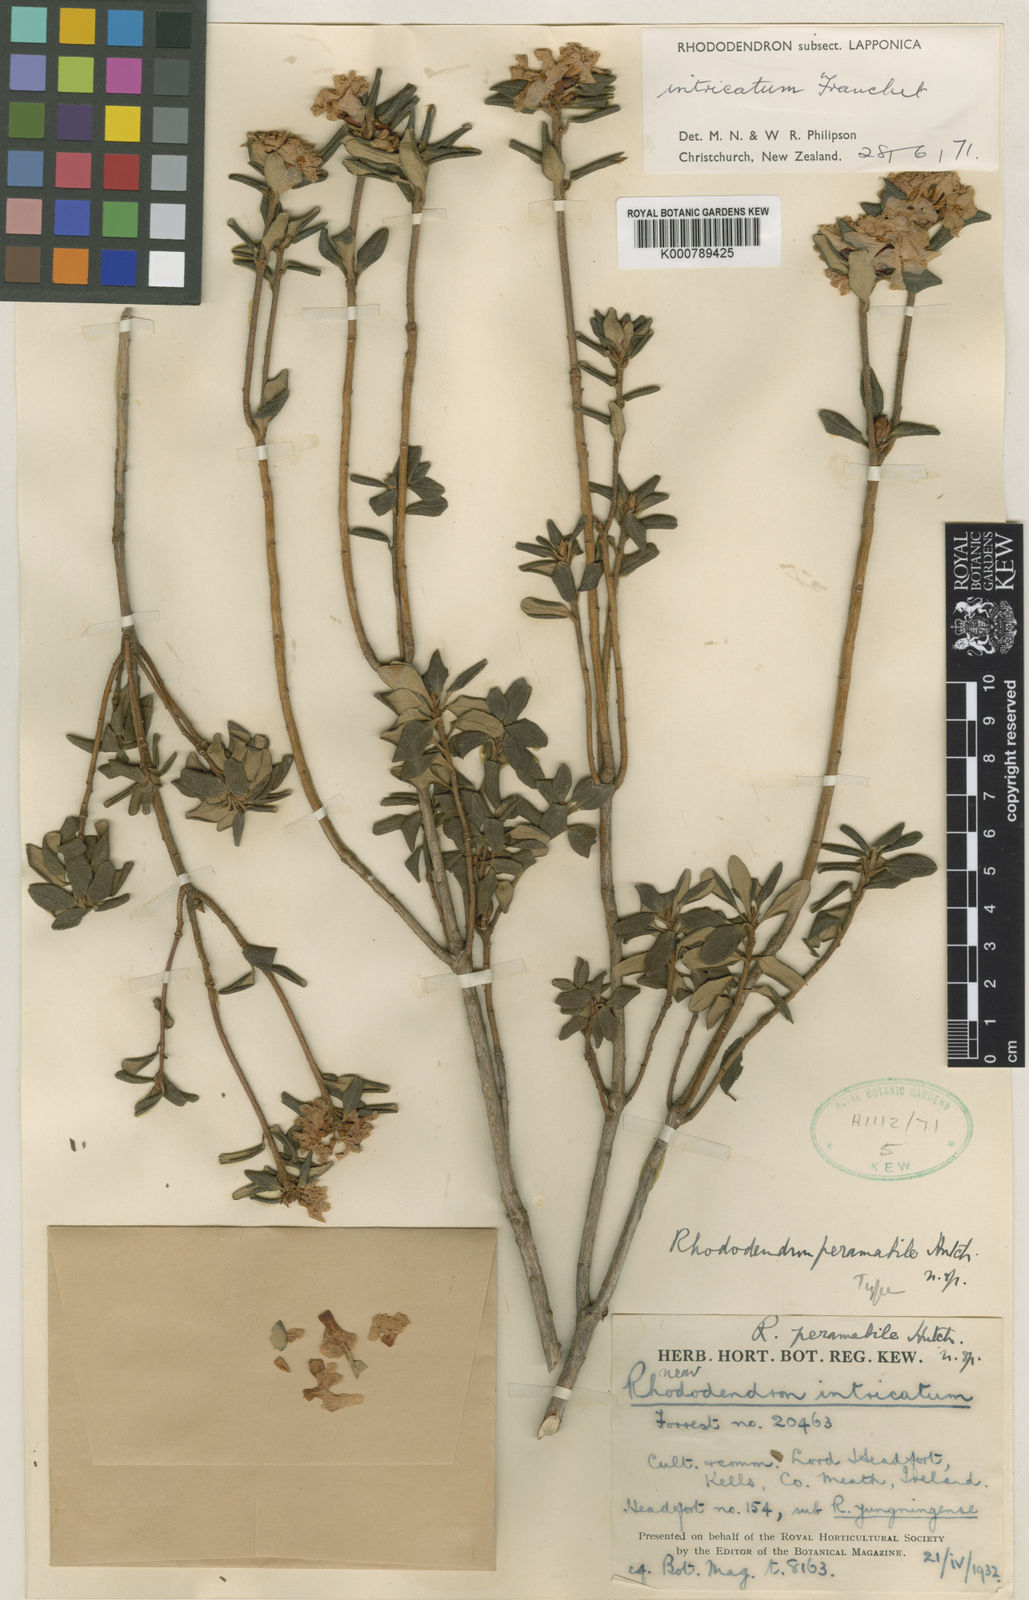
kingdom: Plantae
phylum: Tracheophyta
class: Magnoliopsida
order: Ericales
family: Ericaceae
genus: Rhododendron
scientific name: Rhododendron
